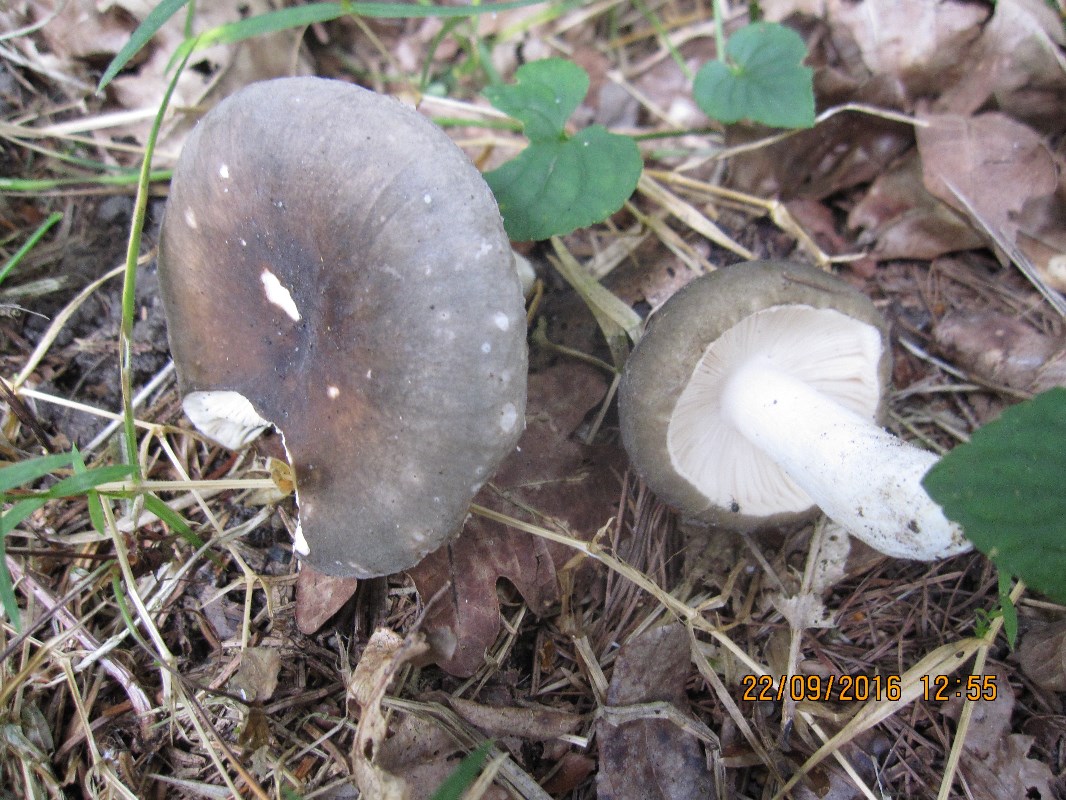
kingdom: Fungi
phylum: Basidiomycota
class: Agaricomycetes
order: Russulales
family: Russulaceae
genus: Russula
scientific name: Russula parazurea
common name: blågrå skørhat
